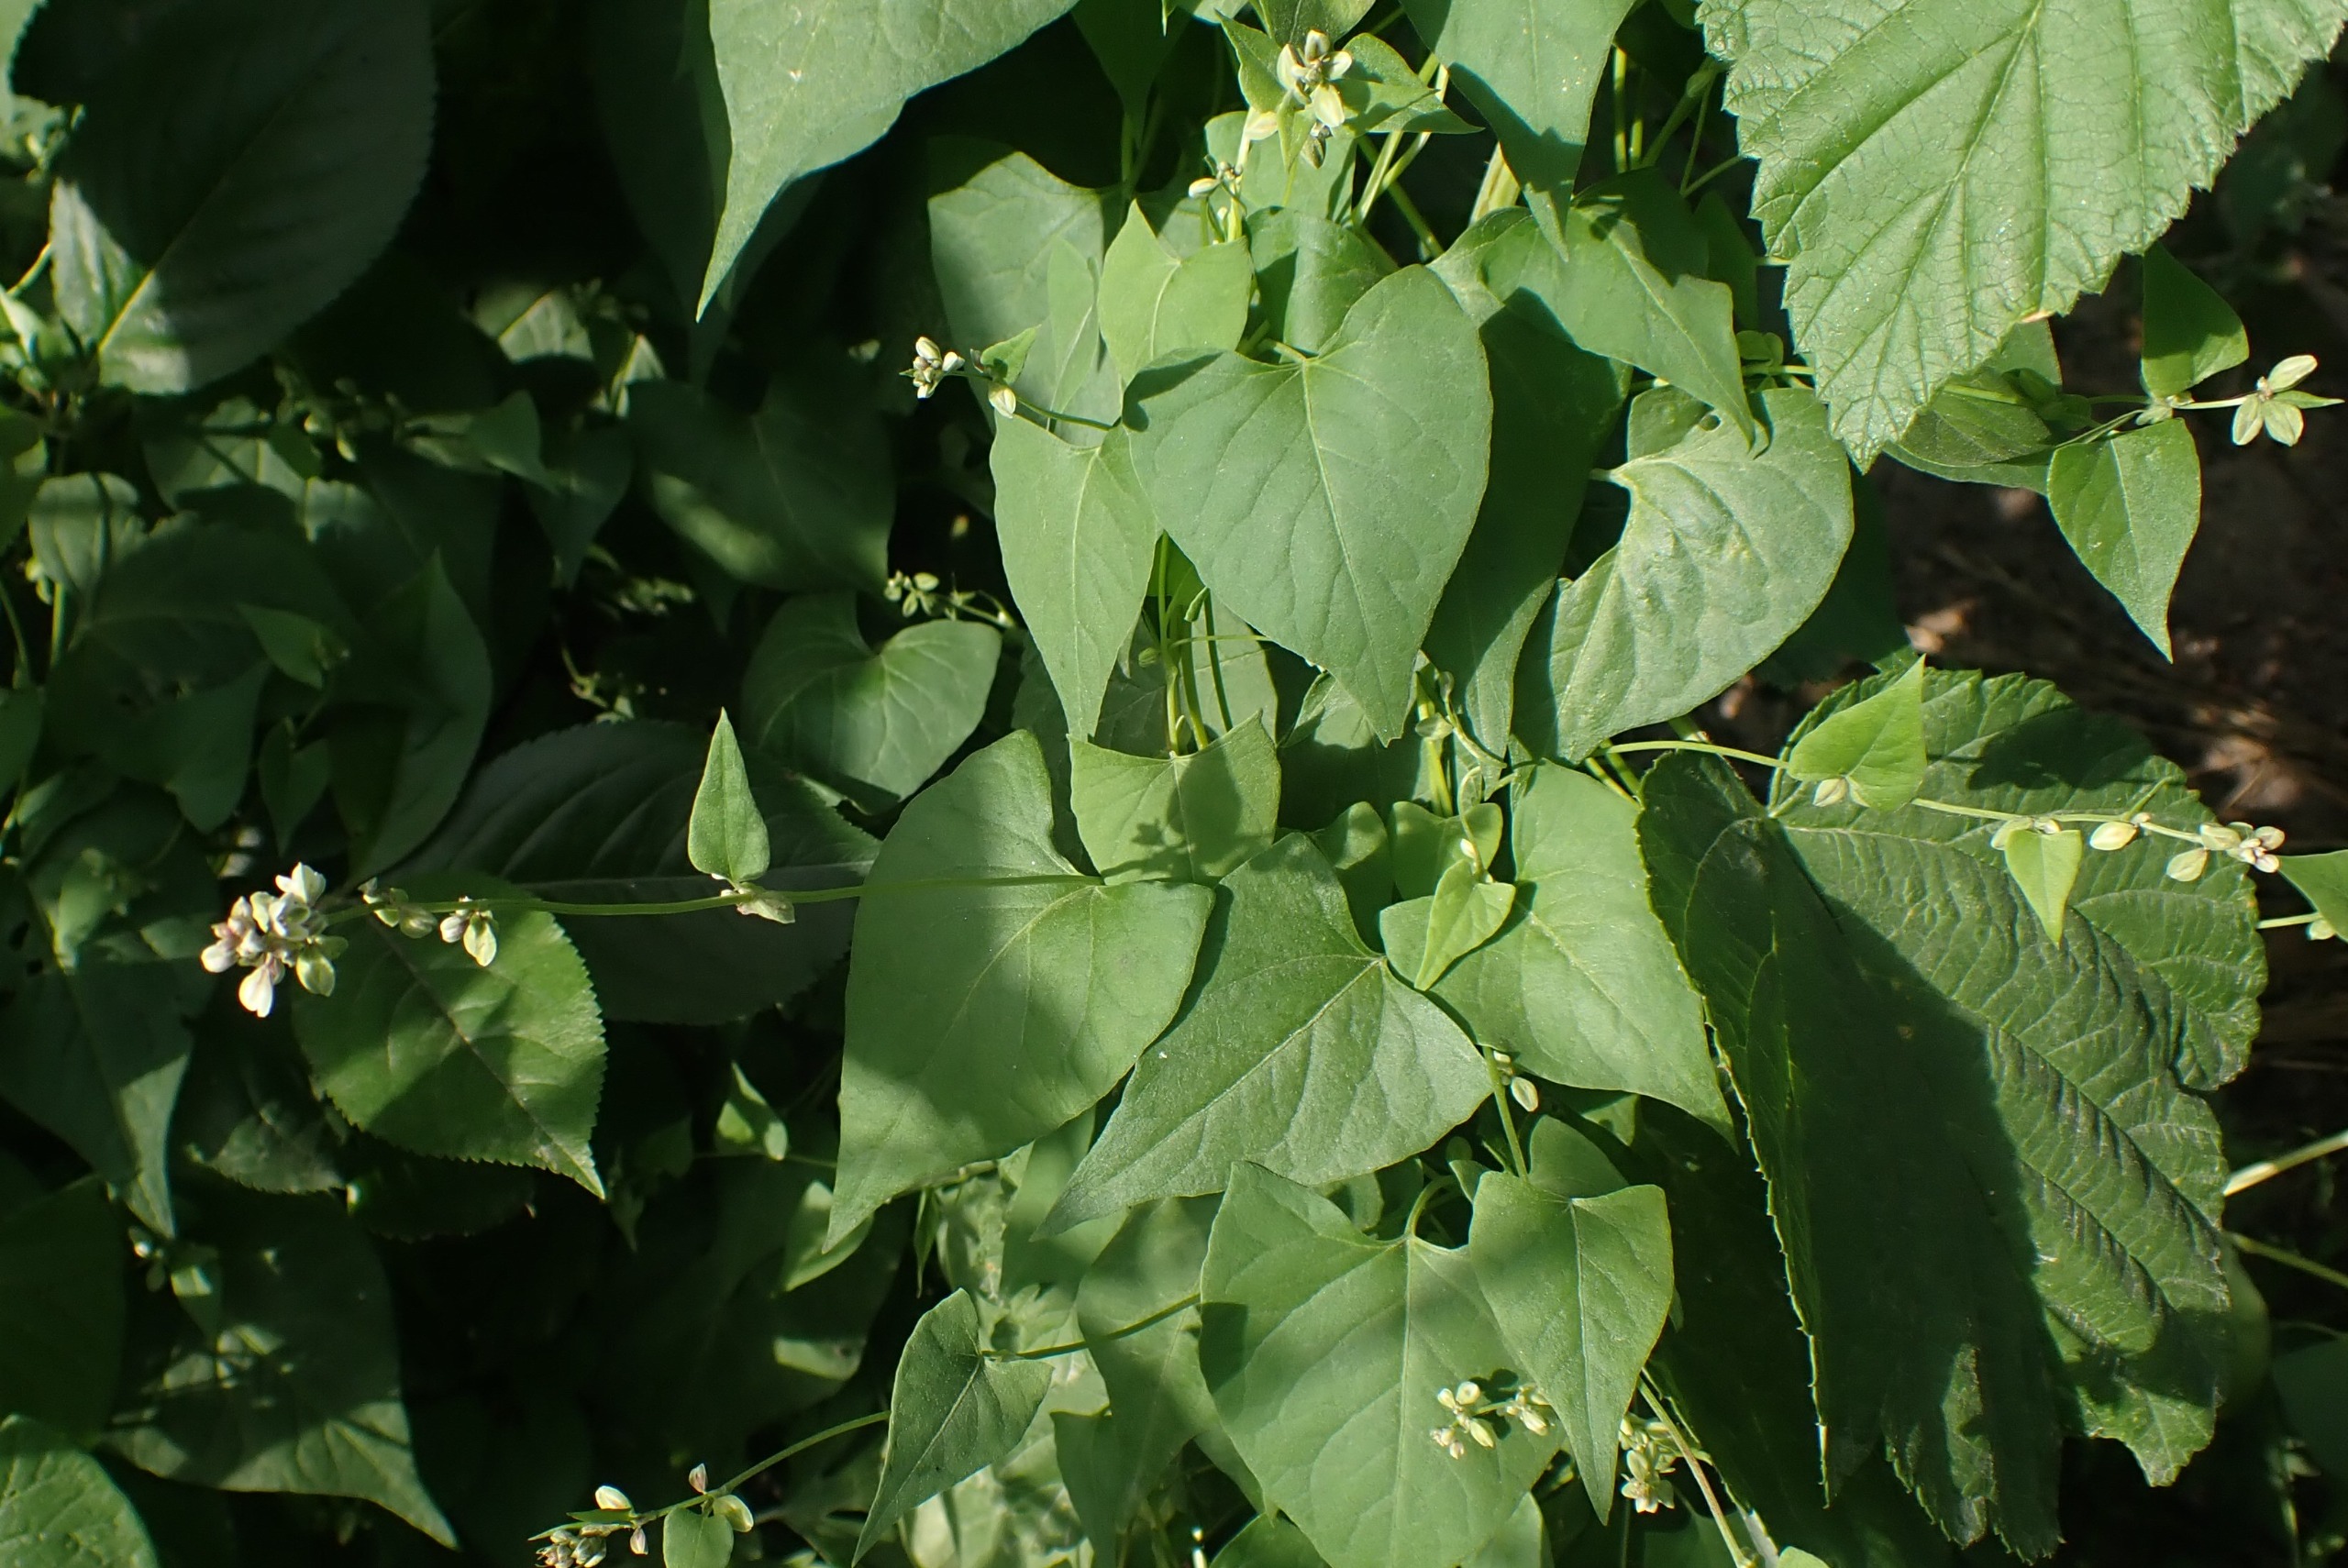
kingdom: Plantae
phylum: Tracheophyta
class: Magnoliopsida
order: Caryophyllales
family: Polygonaceae
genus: Fallopia
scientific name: Fallopia convolvulus
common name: Snerle-pileurt
